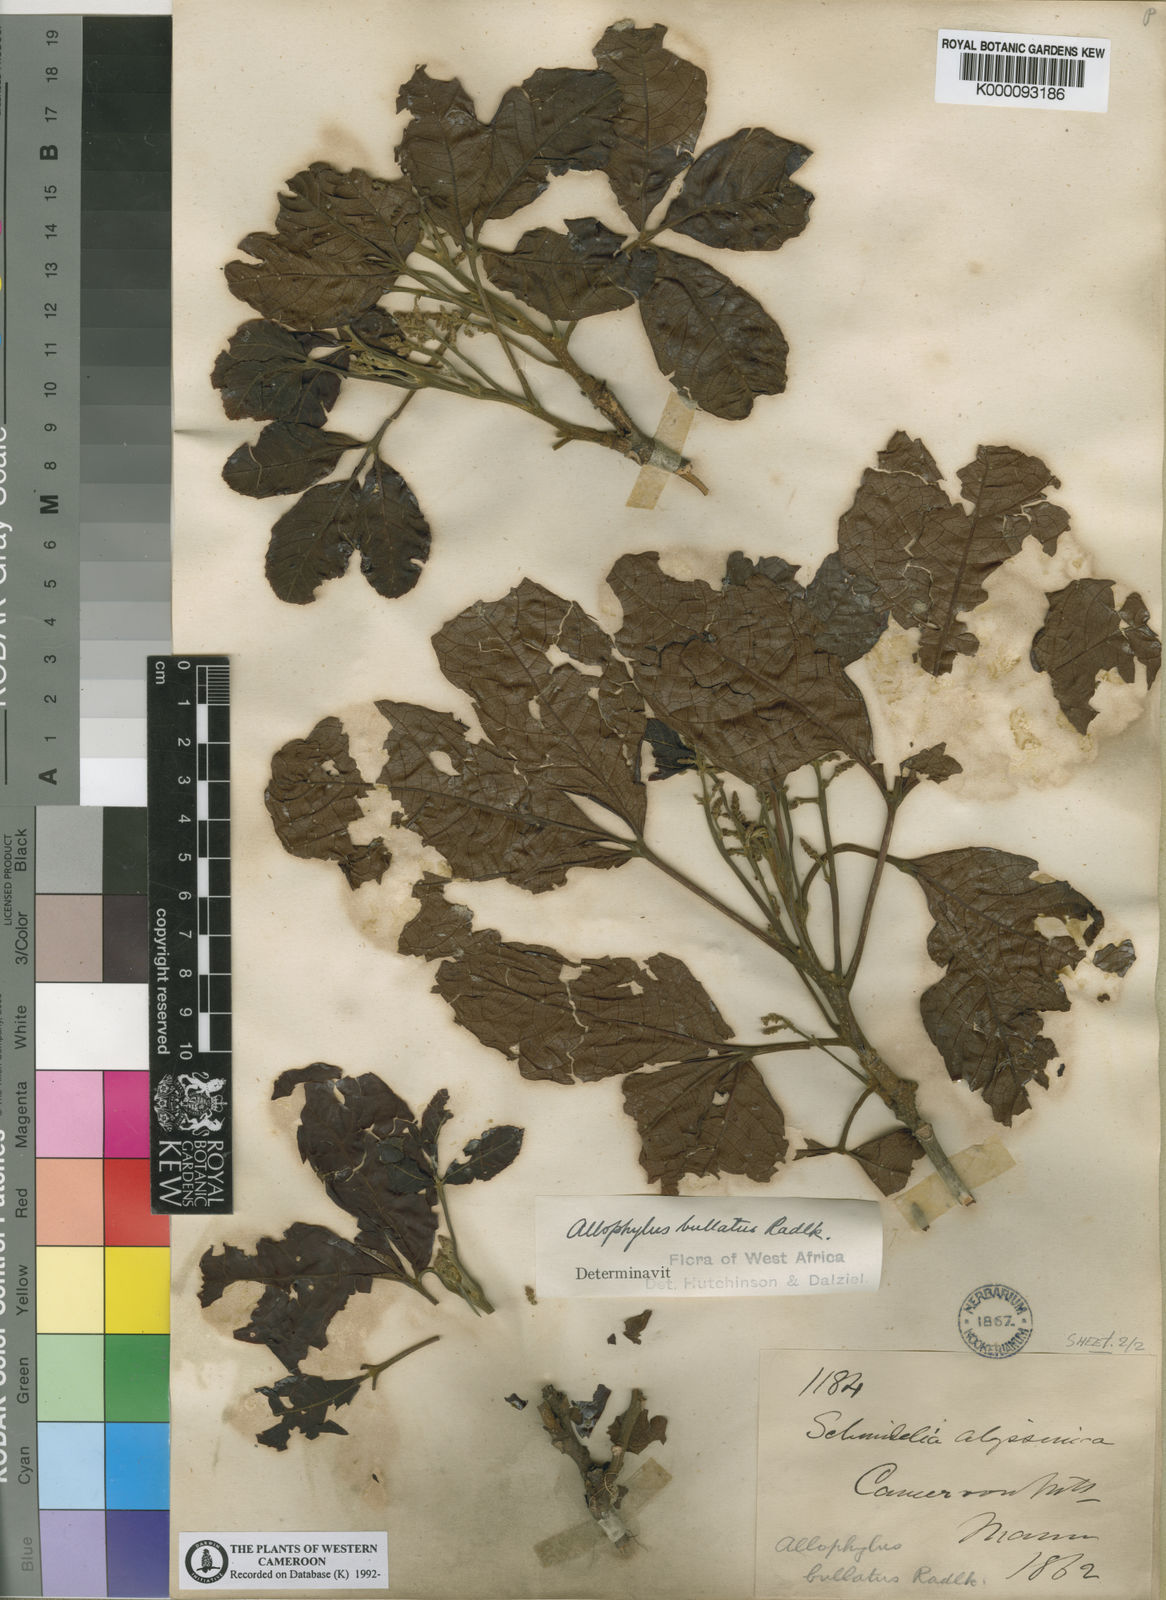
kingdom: Plantae
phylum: Tracheophyta
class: Magnoliopsida
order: Sapindales
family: Sapindaceae
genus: Allophylus
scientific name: Allophylus bullatus
